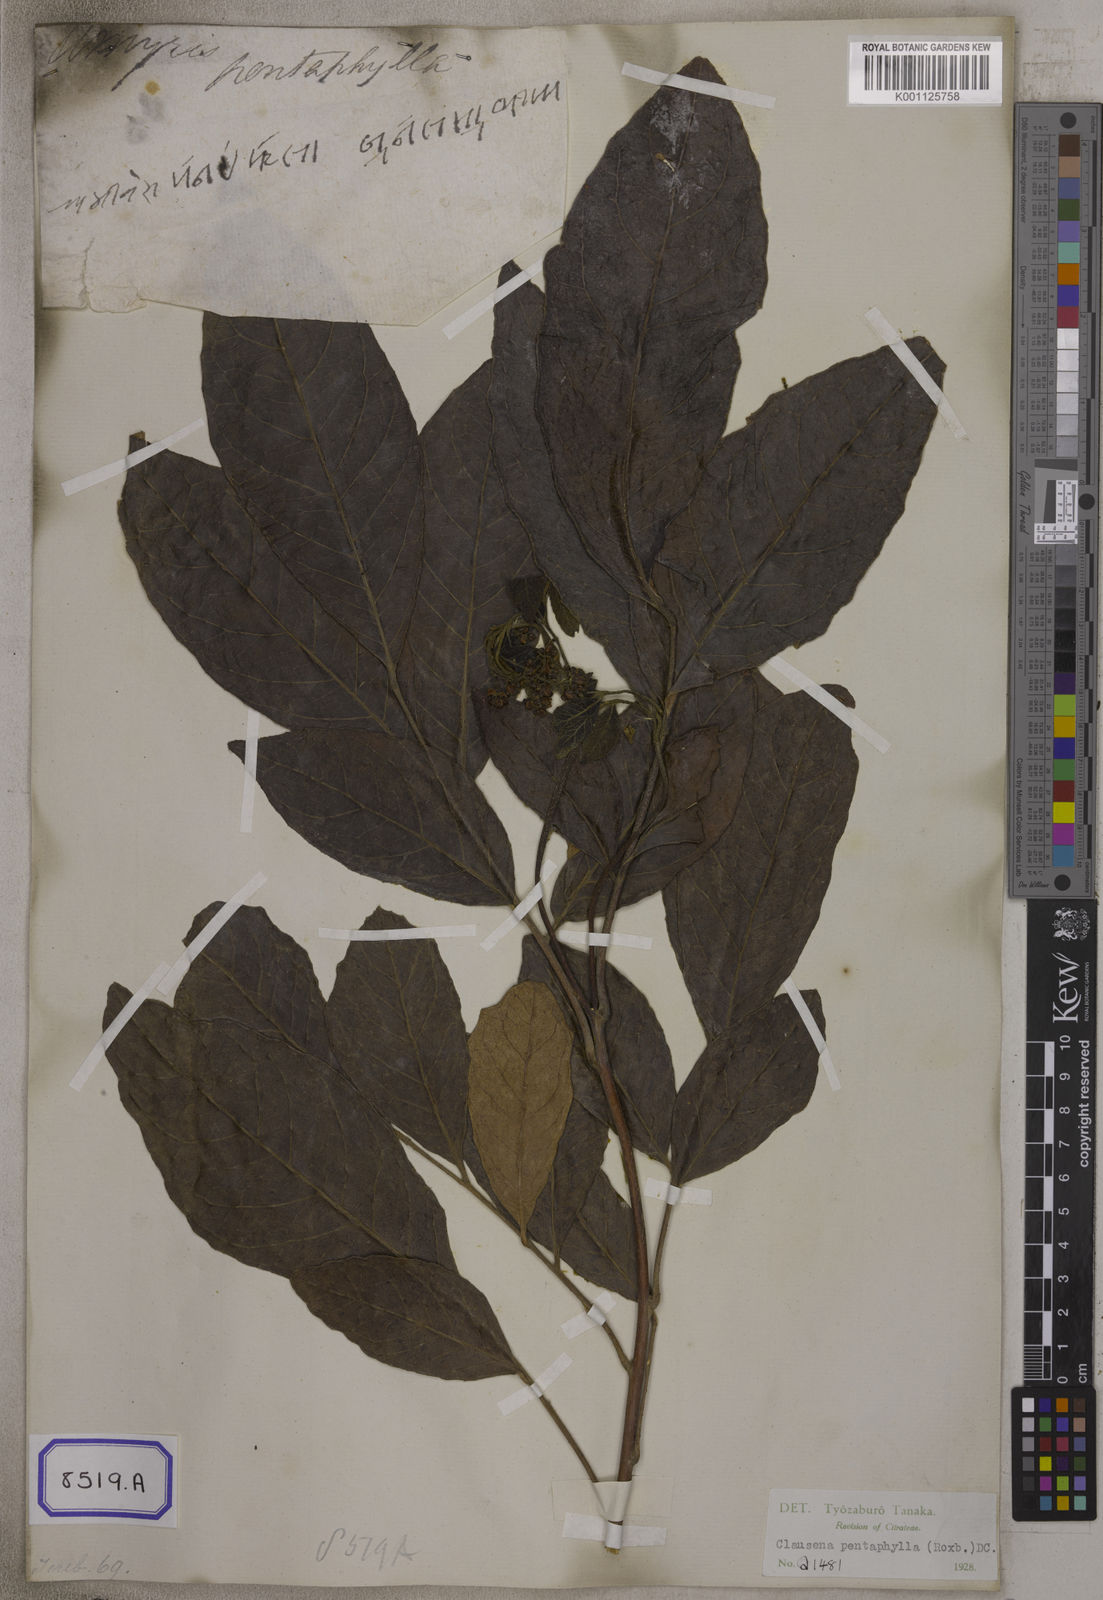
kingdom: Plantae
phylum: Tracheophyta
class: Magnoliopsida
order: Sapindales
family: Rutaceae
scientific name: Rutaceae
